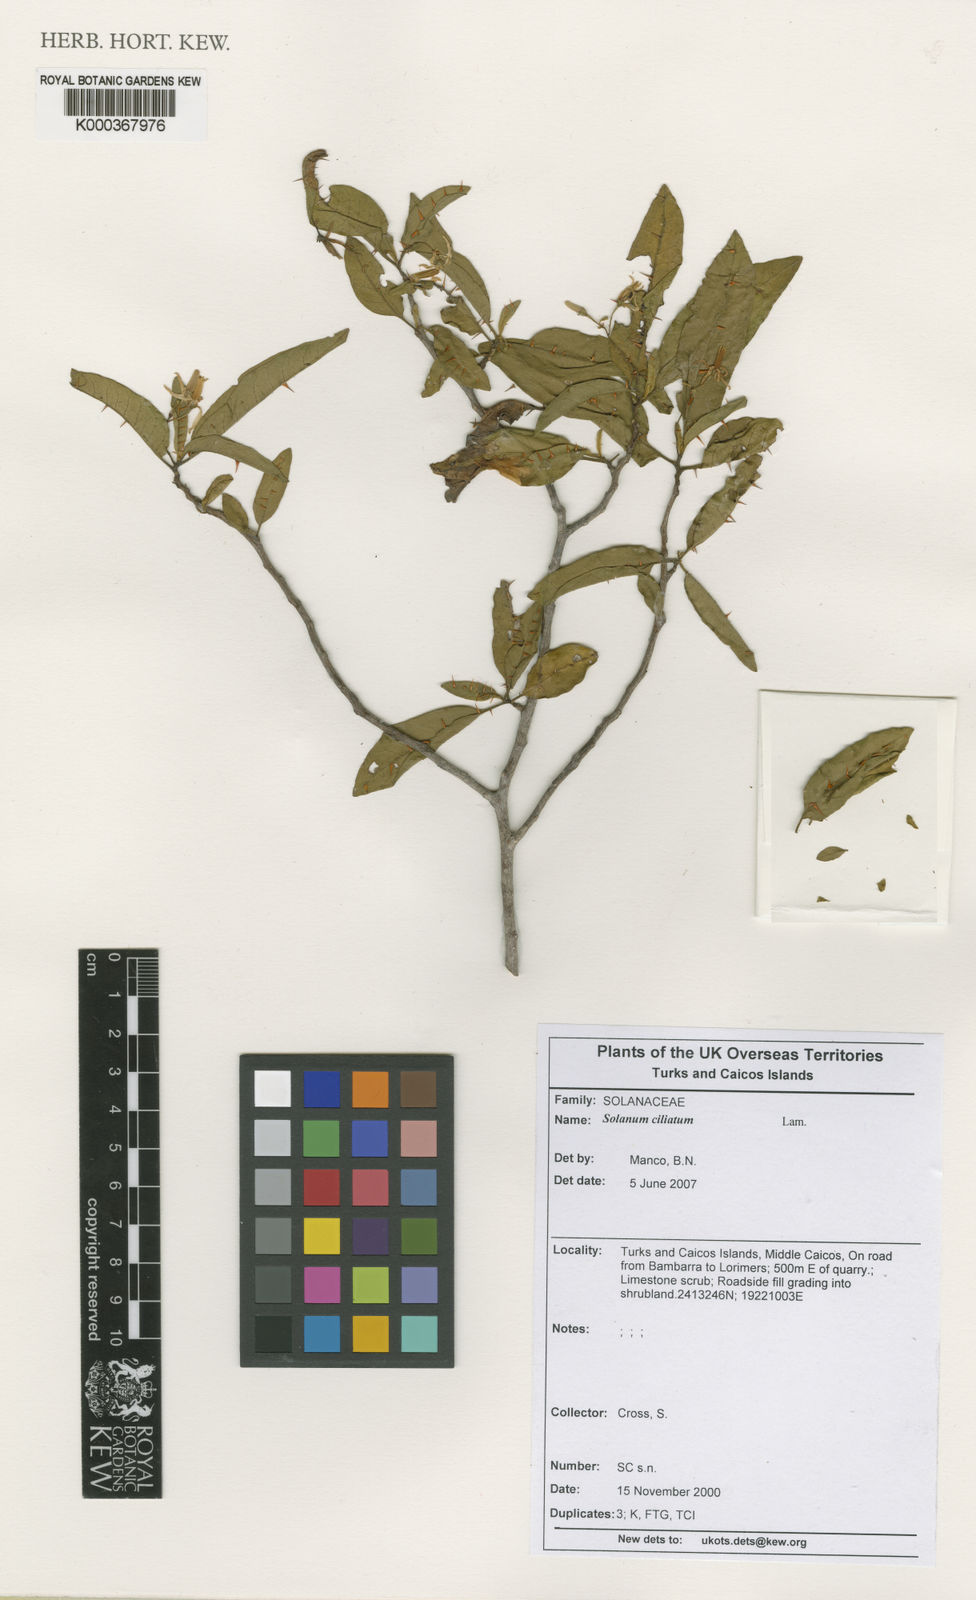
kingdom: Plantae
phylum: Tracheophyta
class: Magnoliopsida
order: Solanales
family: Solanaceae
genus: Solanum
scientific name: Solanum bahamense
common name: Canker-berry
